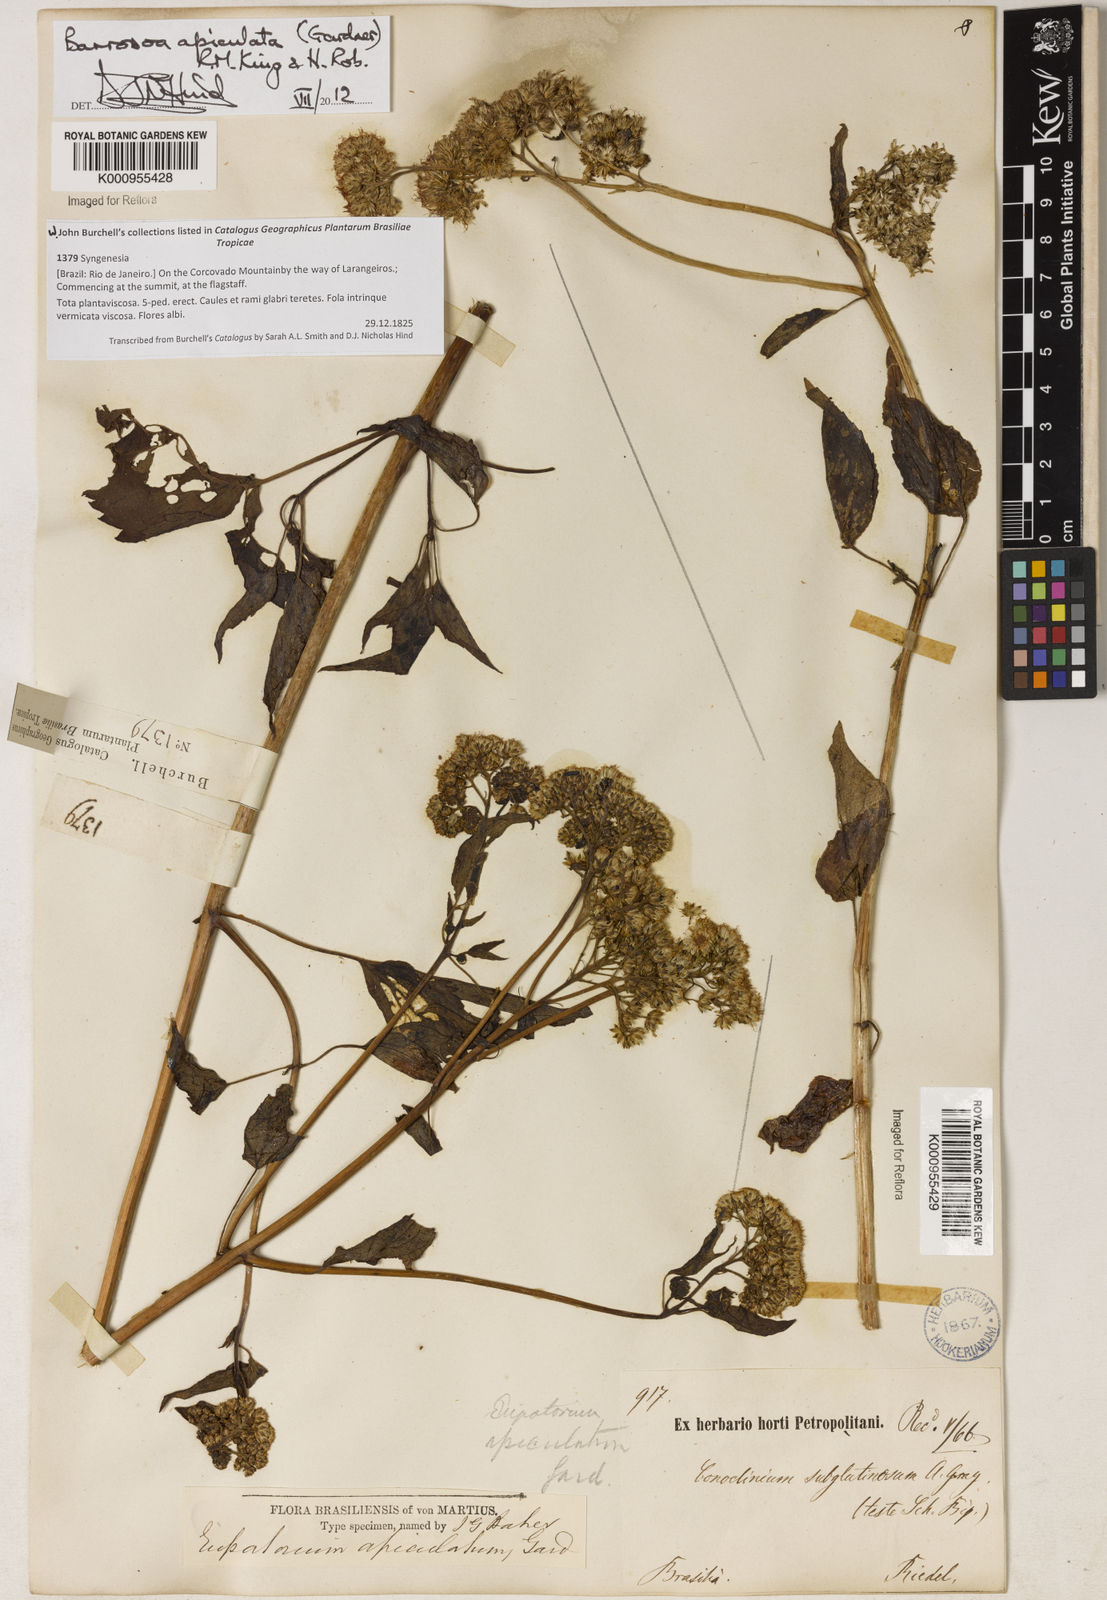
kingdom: Plantae
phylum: Tracheophyta
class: Magnoliopsida
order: Asterales
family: Asteraceae
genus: Barrosoa
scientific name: Barrosoa apiculata
